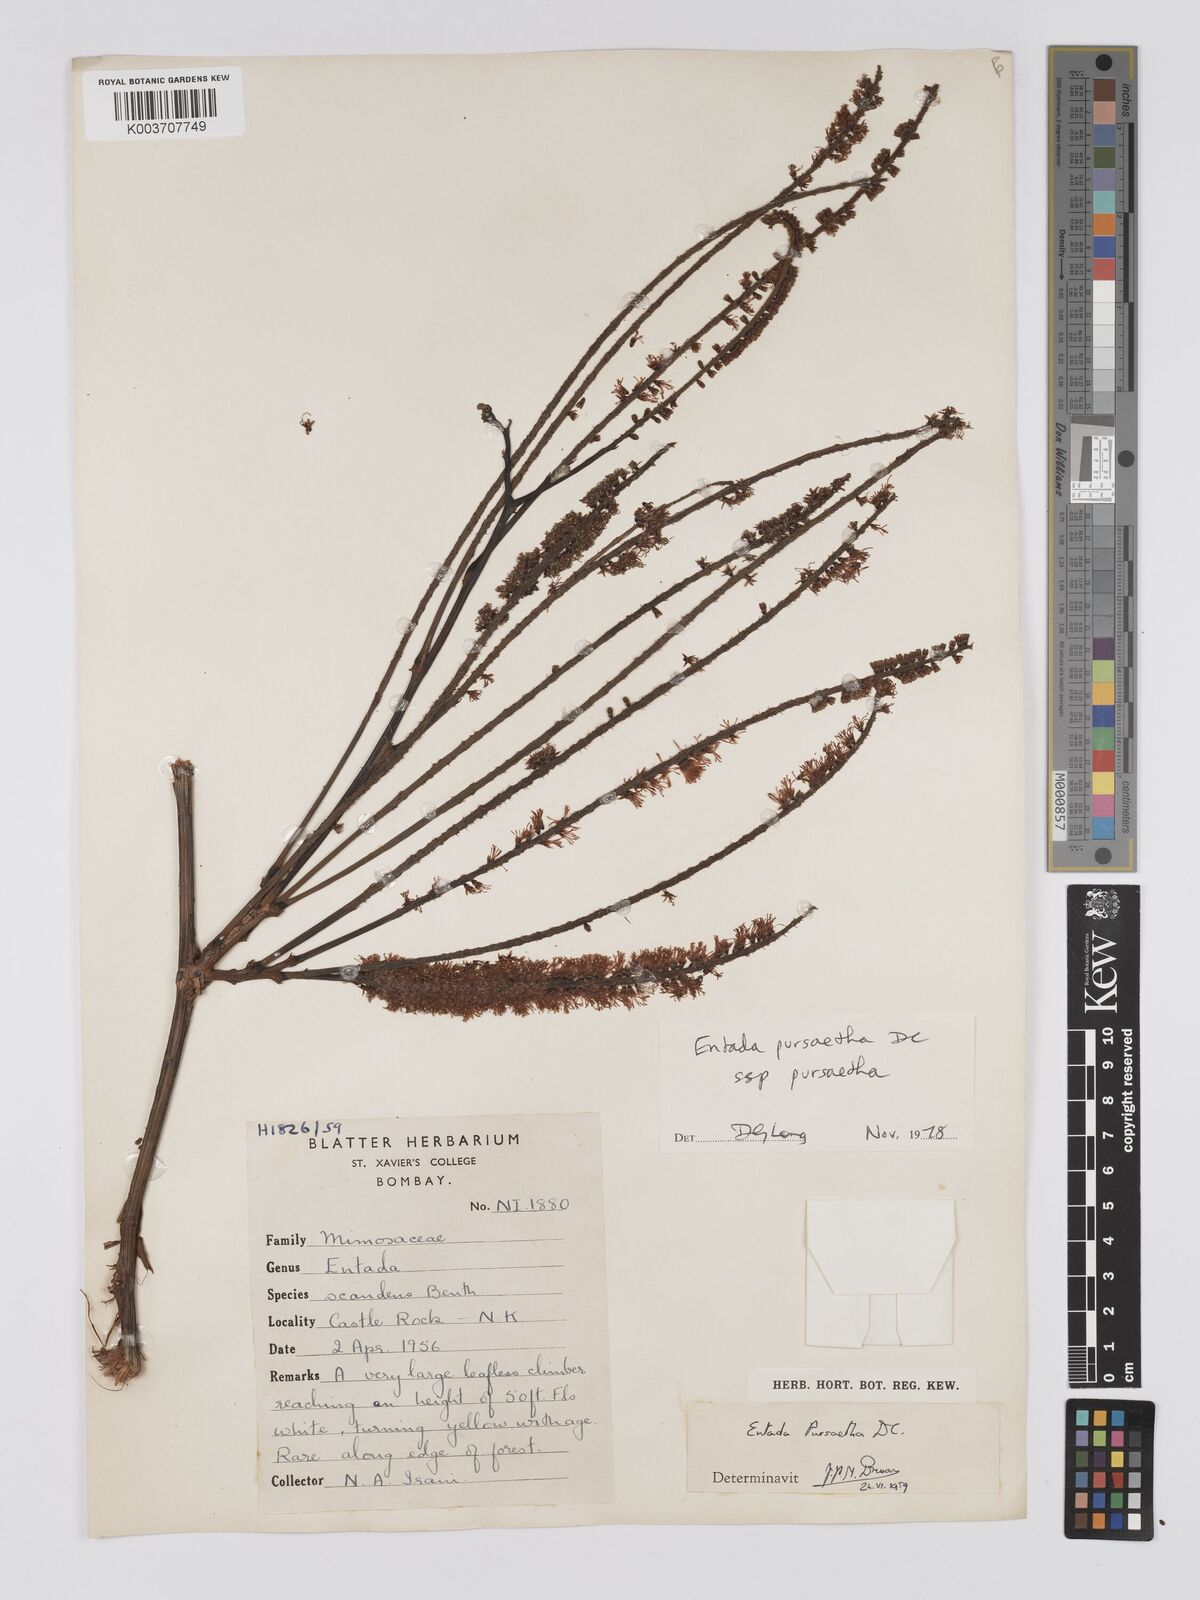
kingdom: Plantae
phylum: Tracheophyta
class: Magnoliopsida
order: Fabales
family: Fabaceae
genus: Entada
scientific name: Entada rheedei
